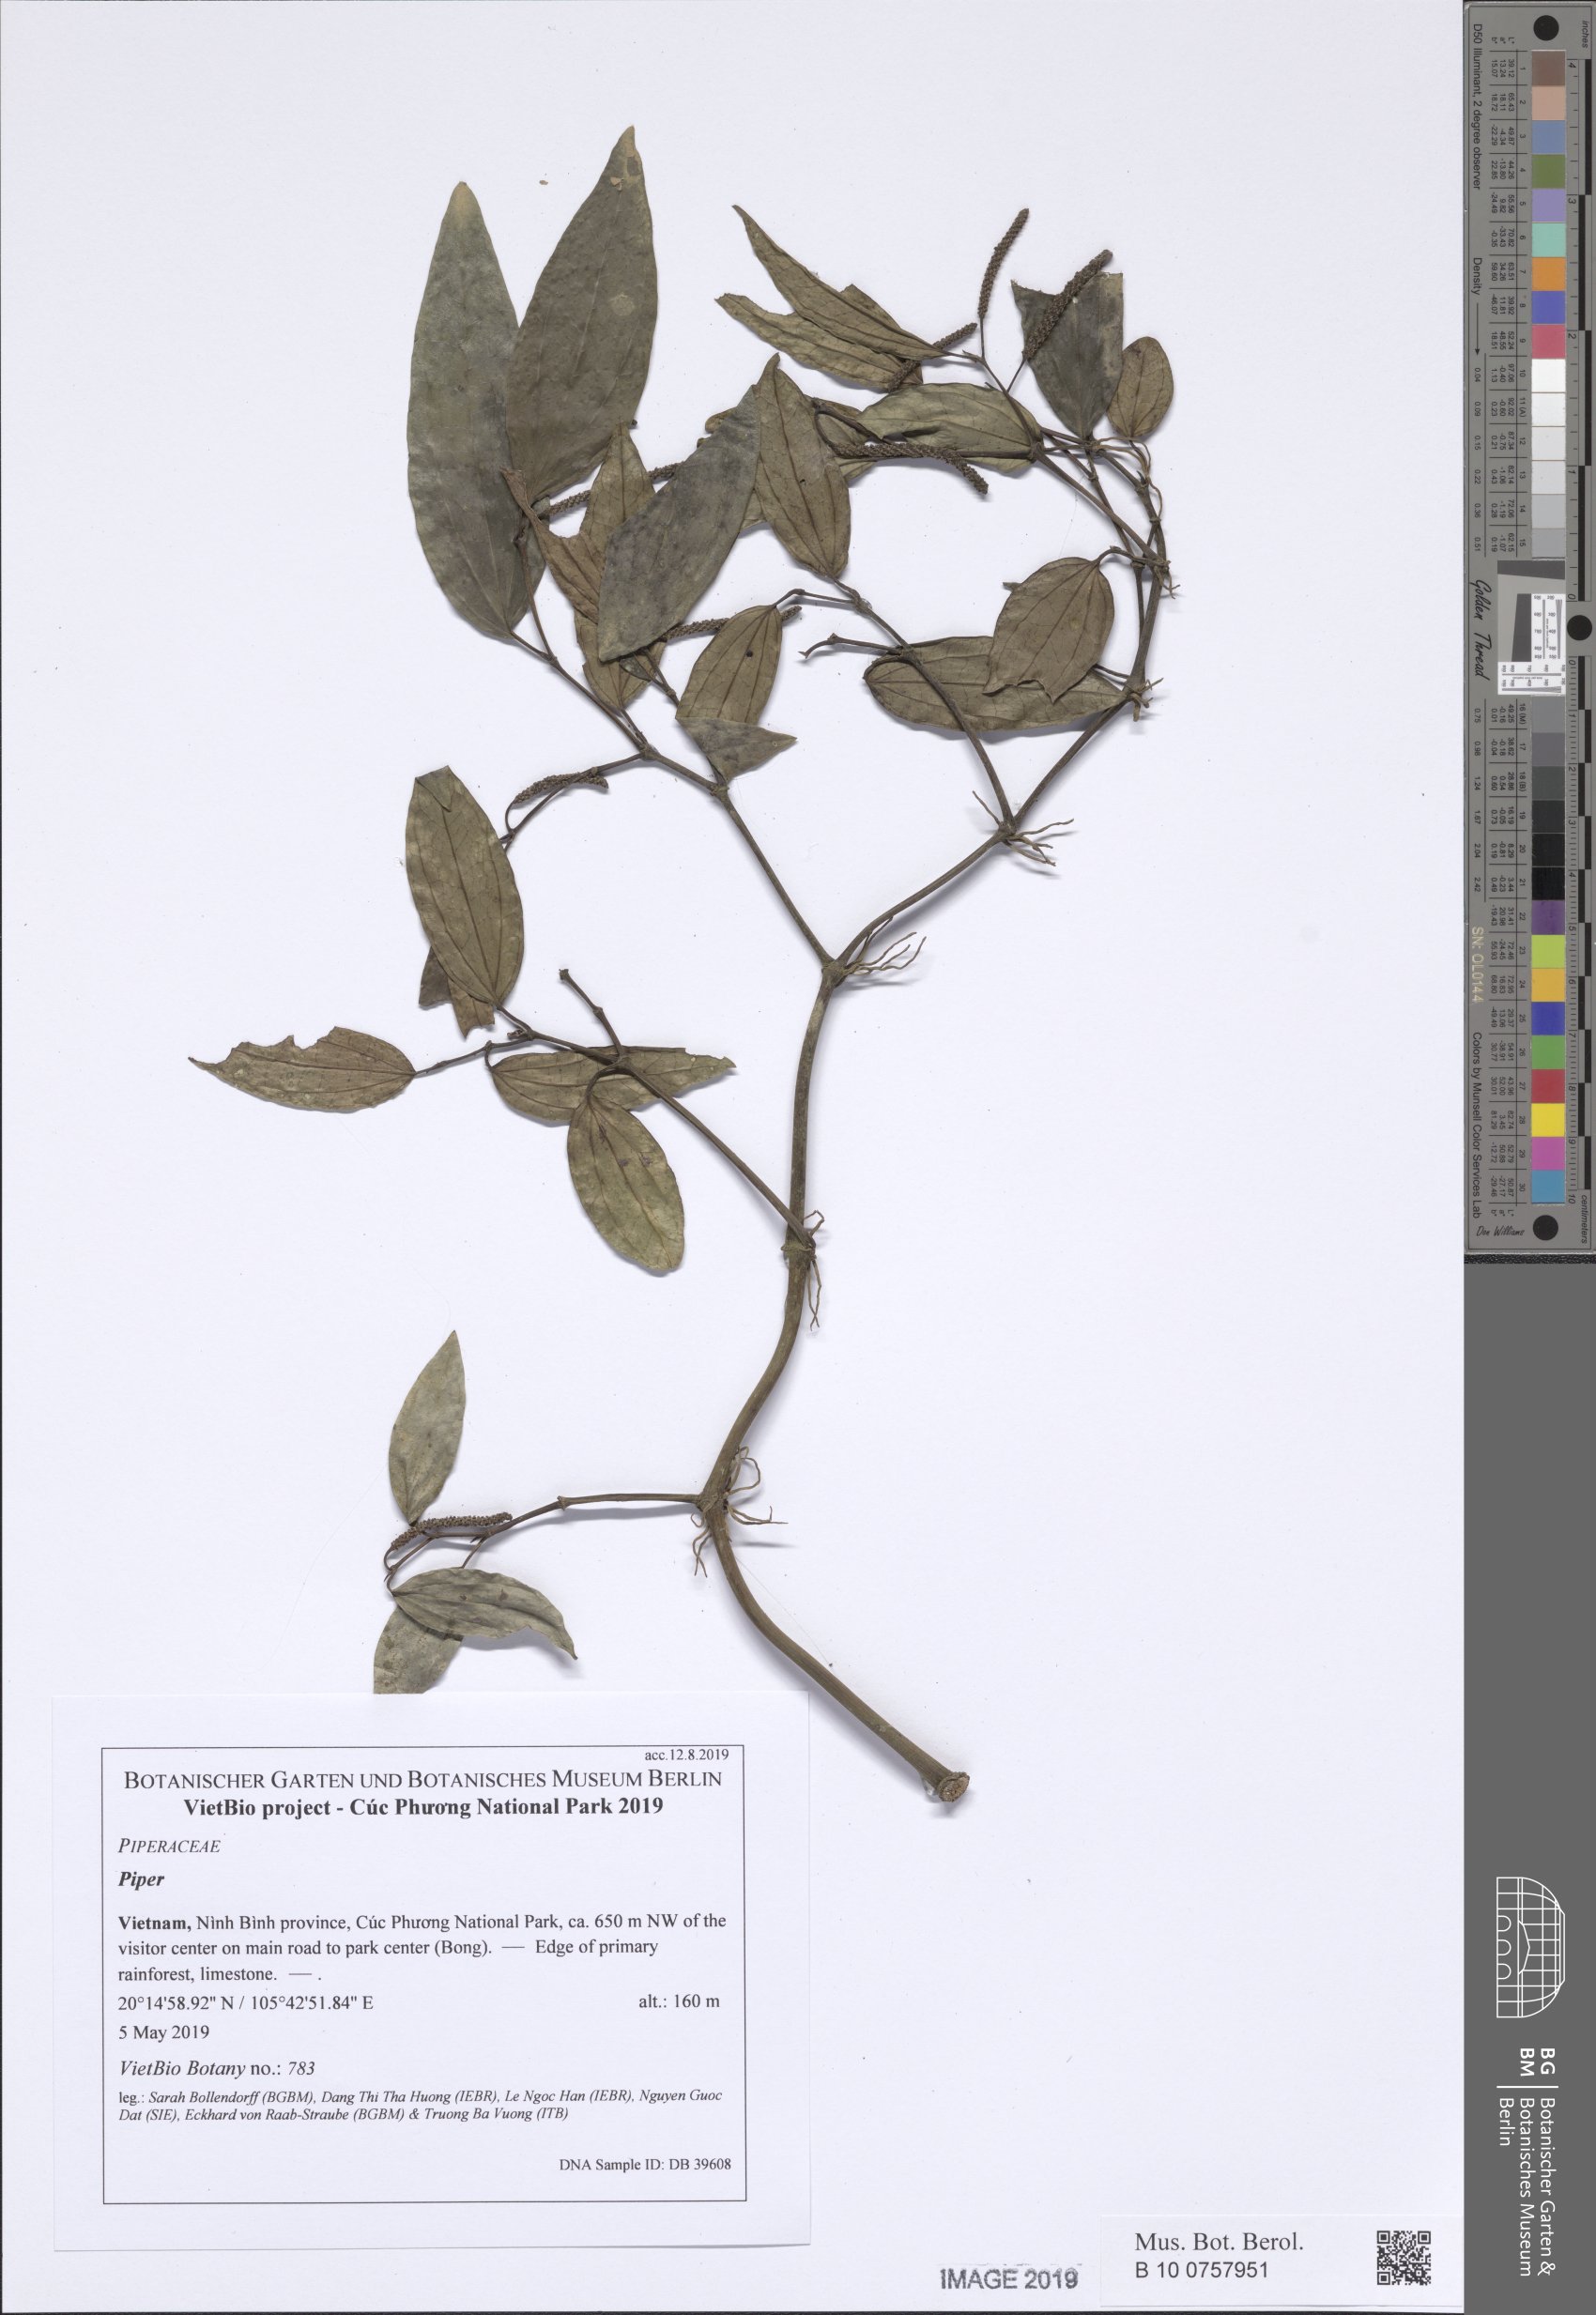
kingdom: Plantae
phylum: Tracheophyta
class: Magnoliopsida
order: Piperales
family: Piperaceae
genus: Piper
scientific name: Piper
